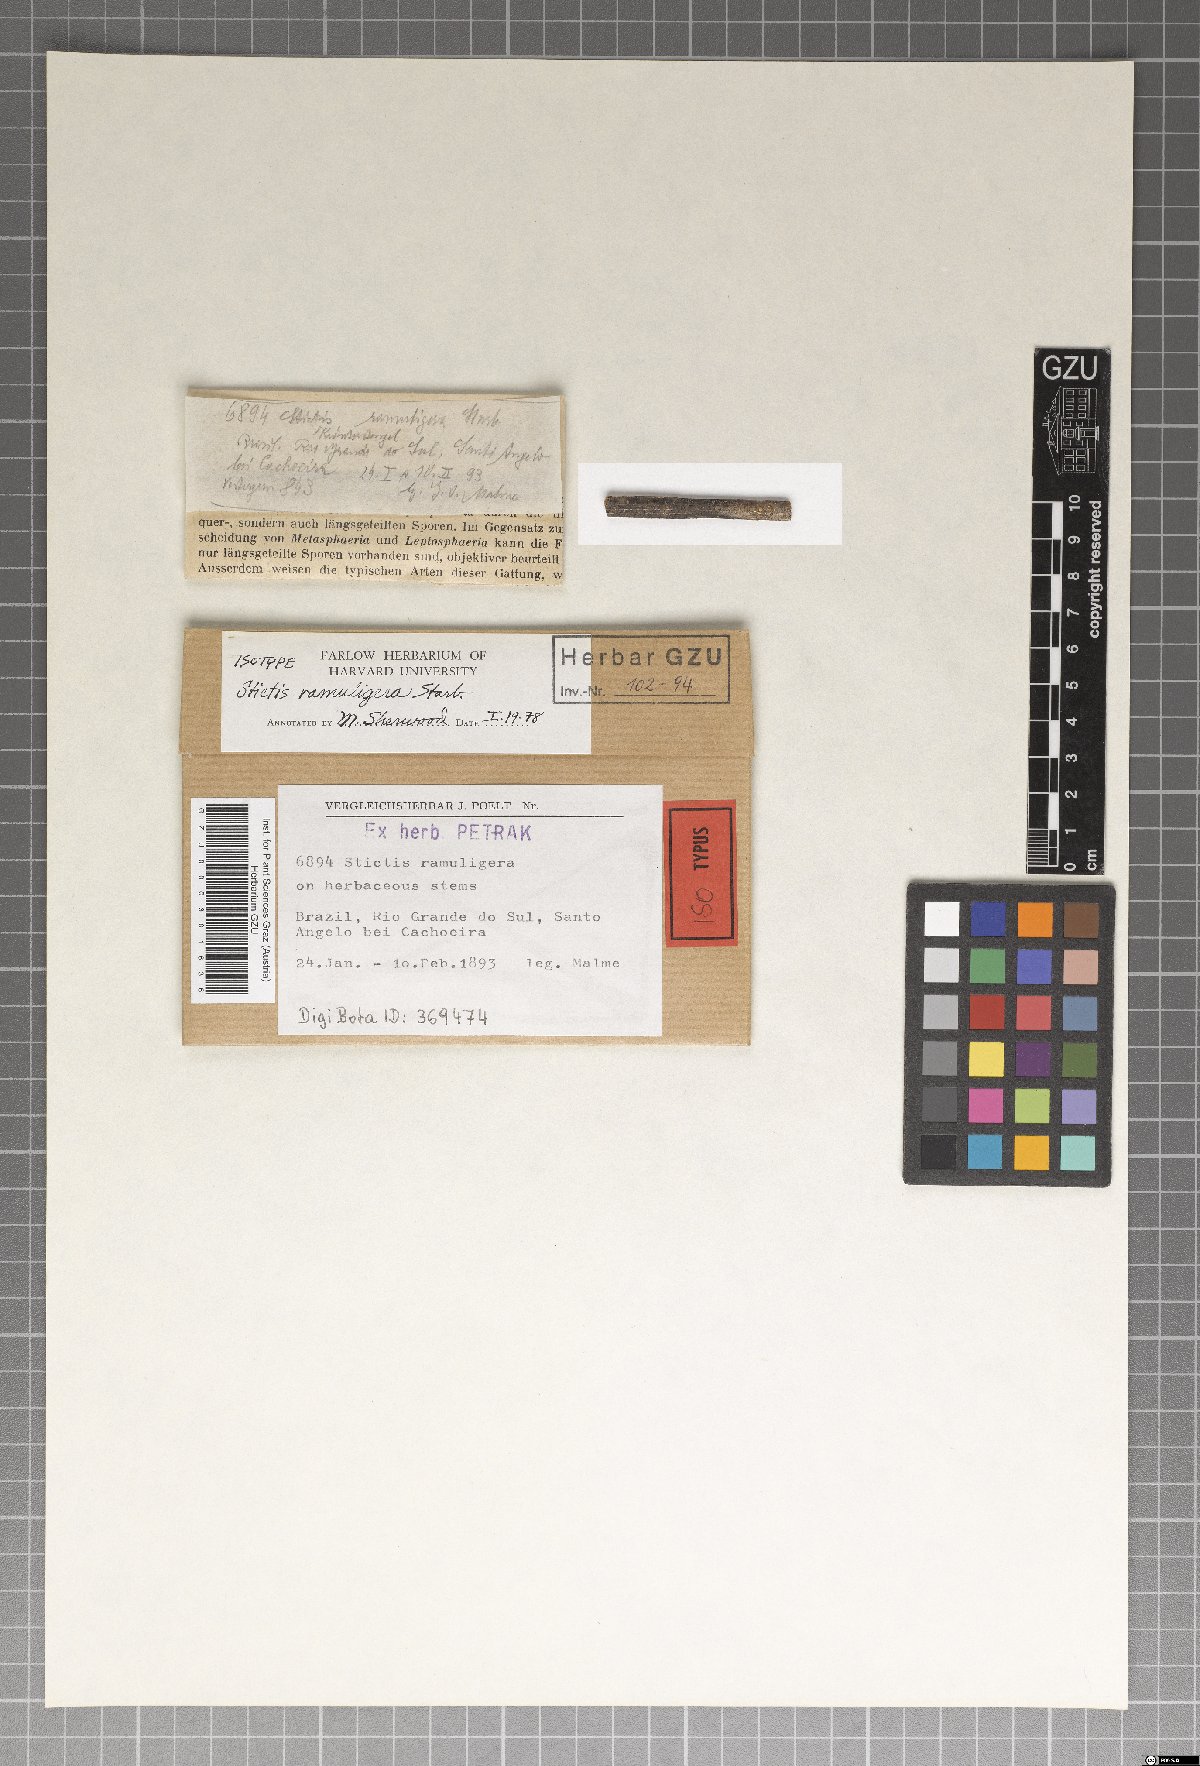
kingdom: Fungi
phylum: Ascomycota
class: Lecanoromycetes
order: Ostropales
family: Stictidaceae
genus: Stictis
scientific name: Stictis
